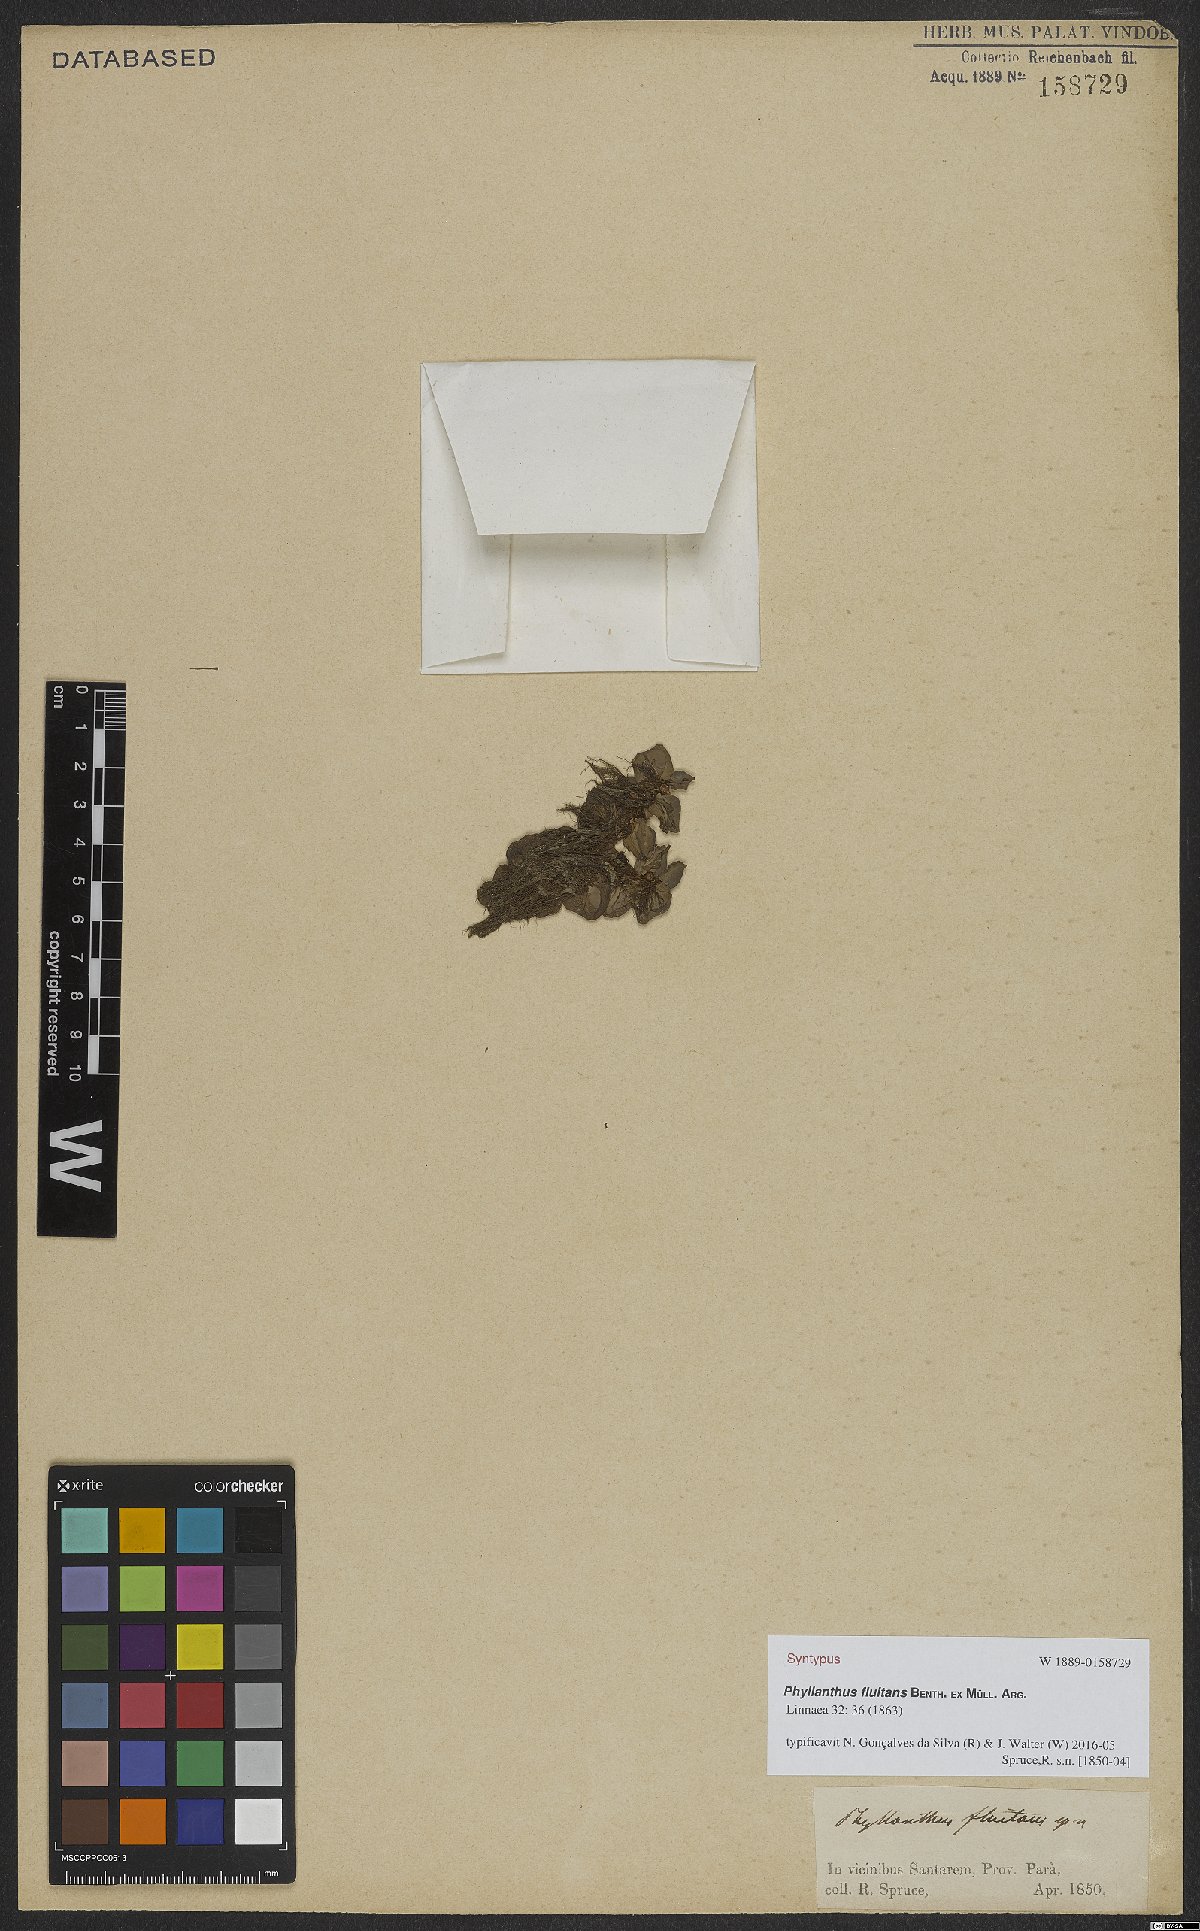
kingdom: Plantae
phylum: Tracheophyta
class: Magnoliopsida
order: Malpighiales
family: Phyllanthaceae
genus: Phyllanthus
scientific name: Phyllanthus fluitans
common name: Floating spurge
